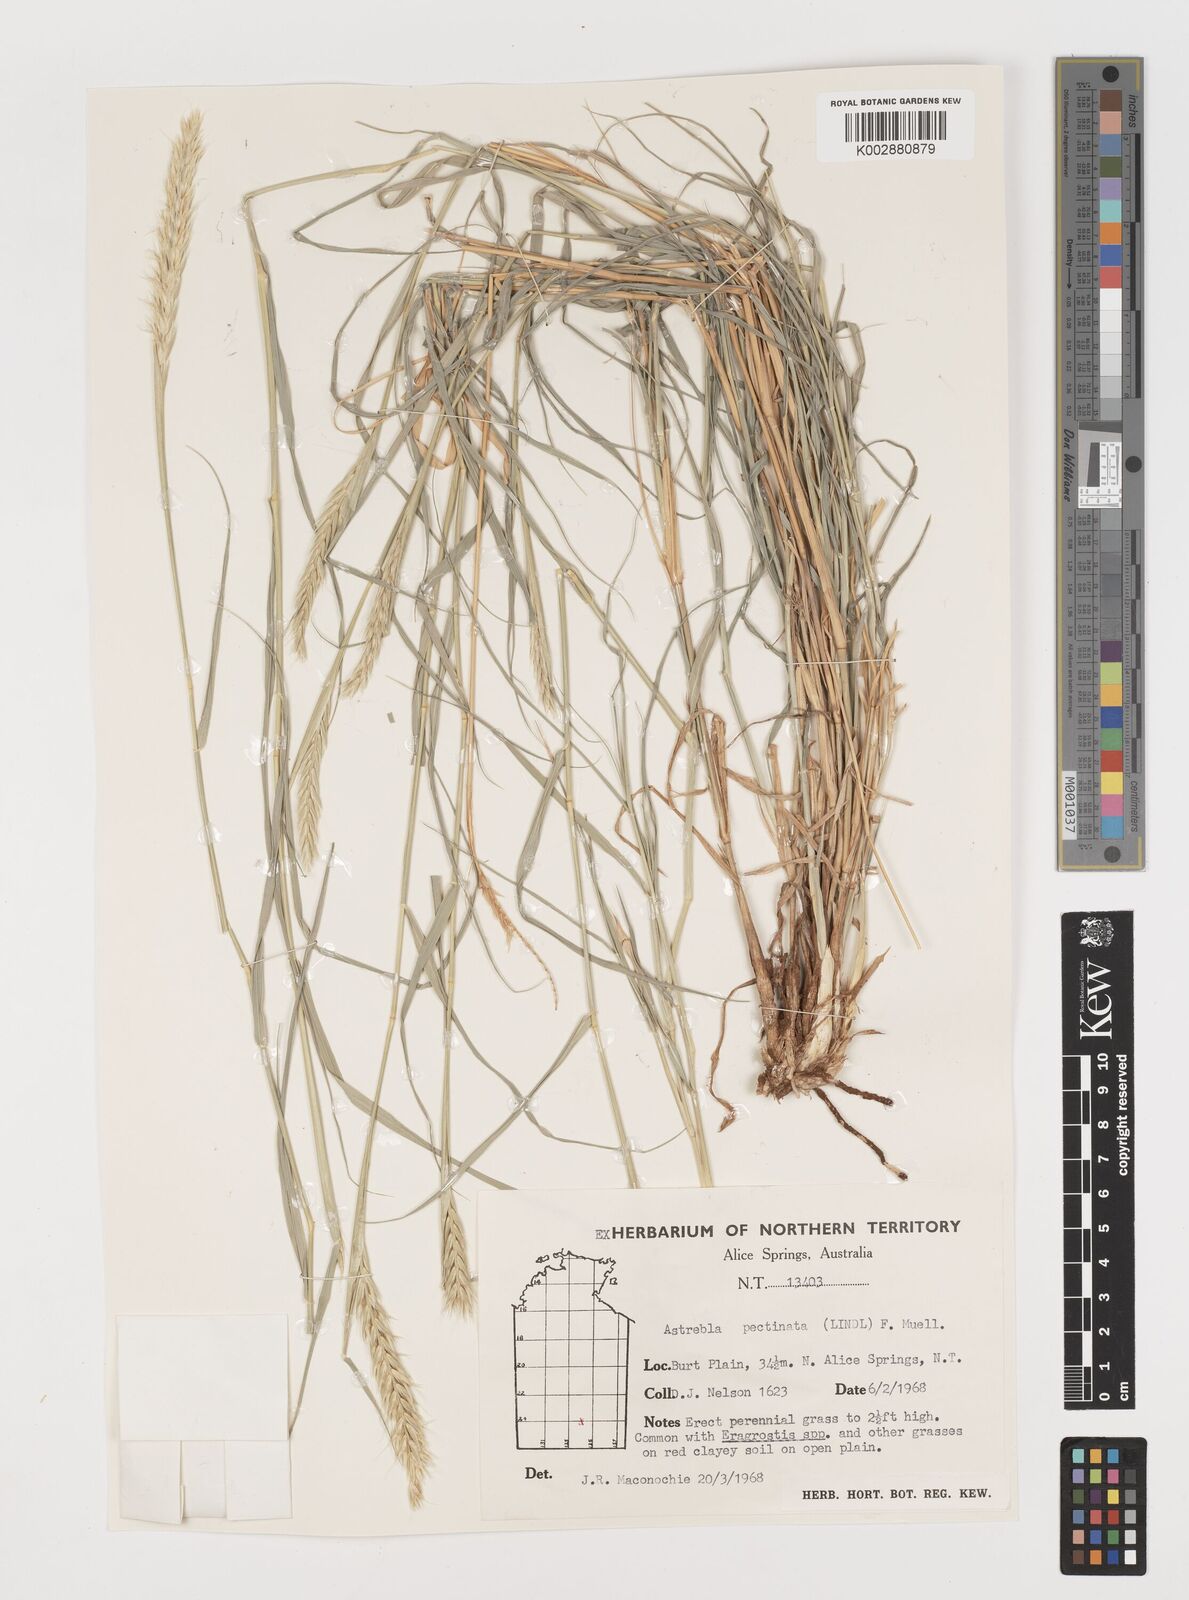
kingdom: Plantae
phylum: Tracheophyta
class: Liliopsida
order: Poales
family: Poaceae
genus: Astrebla
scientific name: Astrebla pectinata
